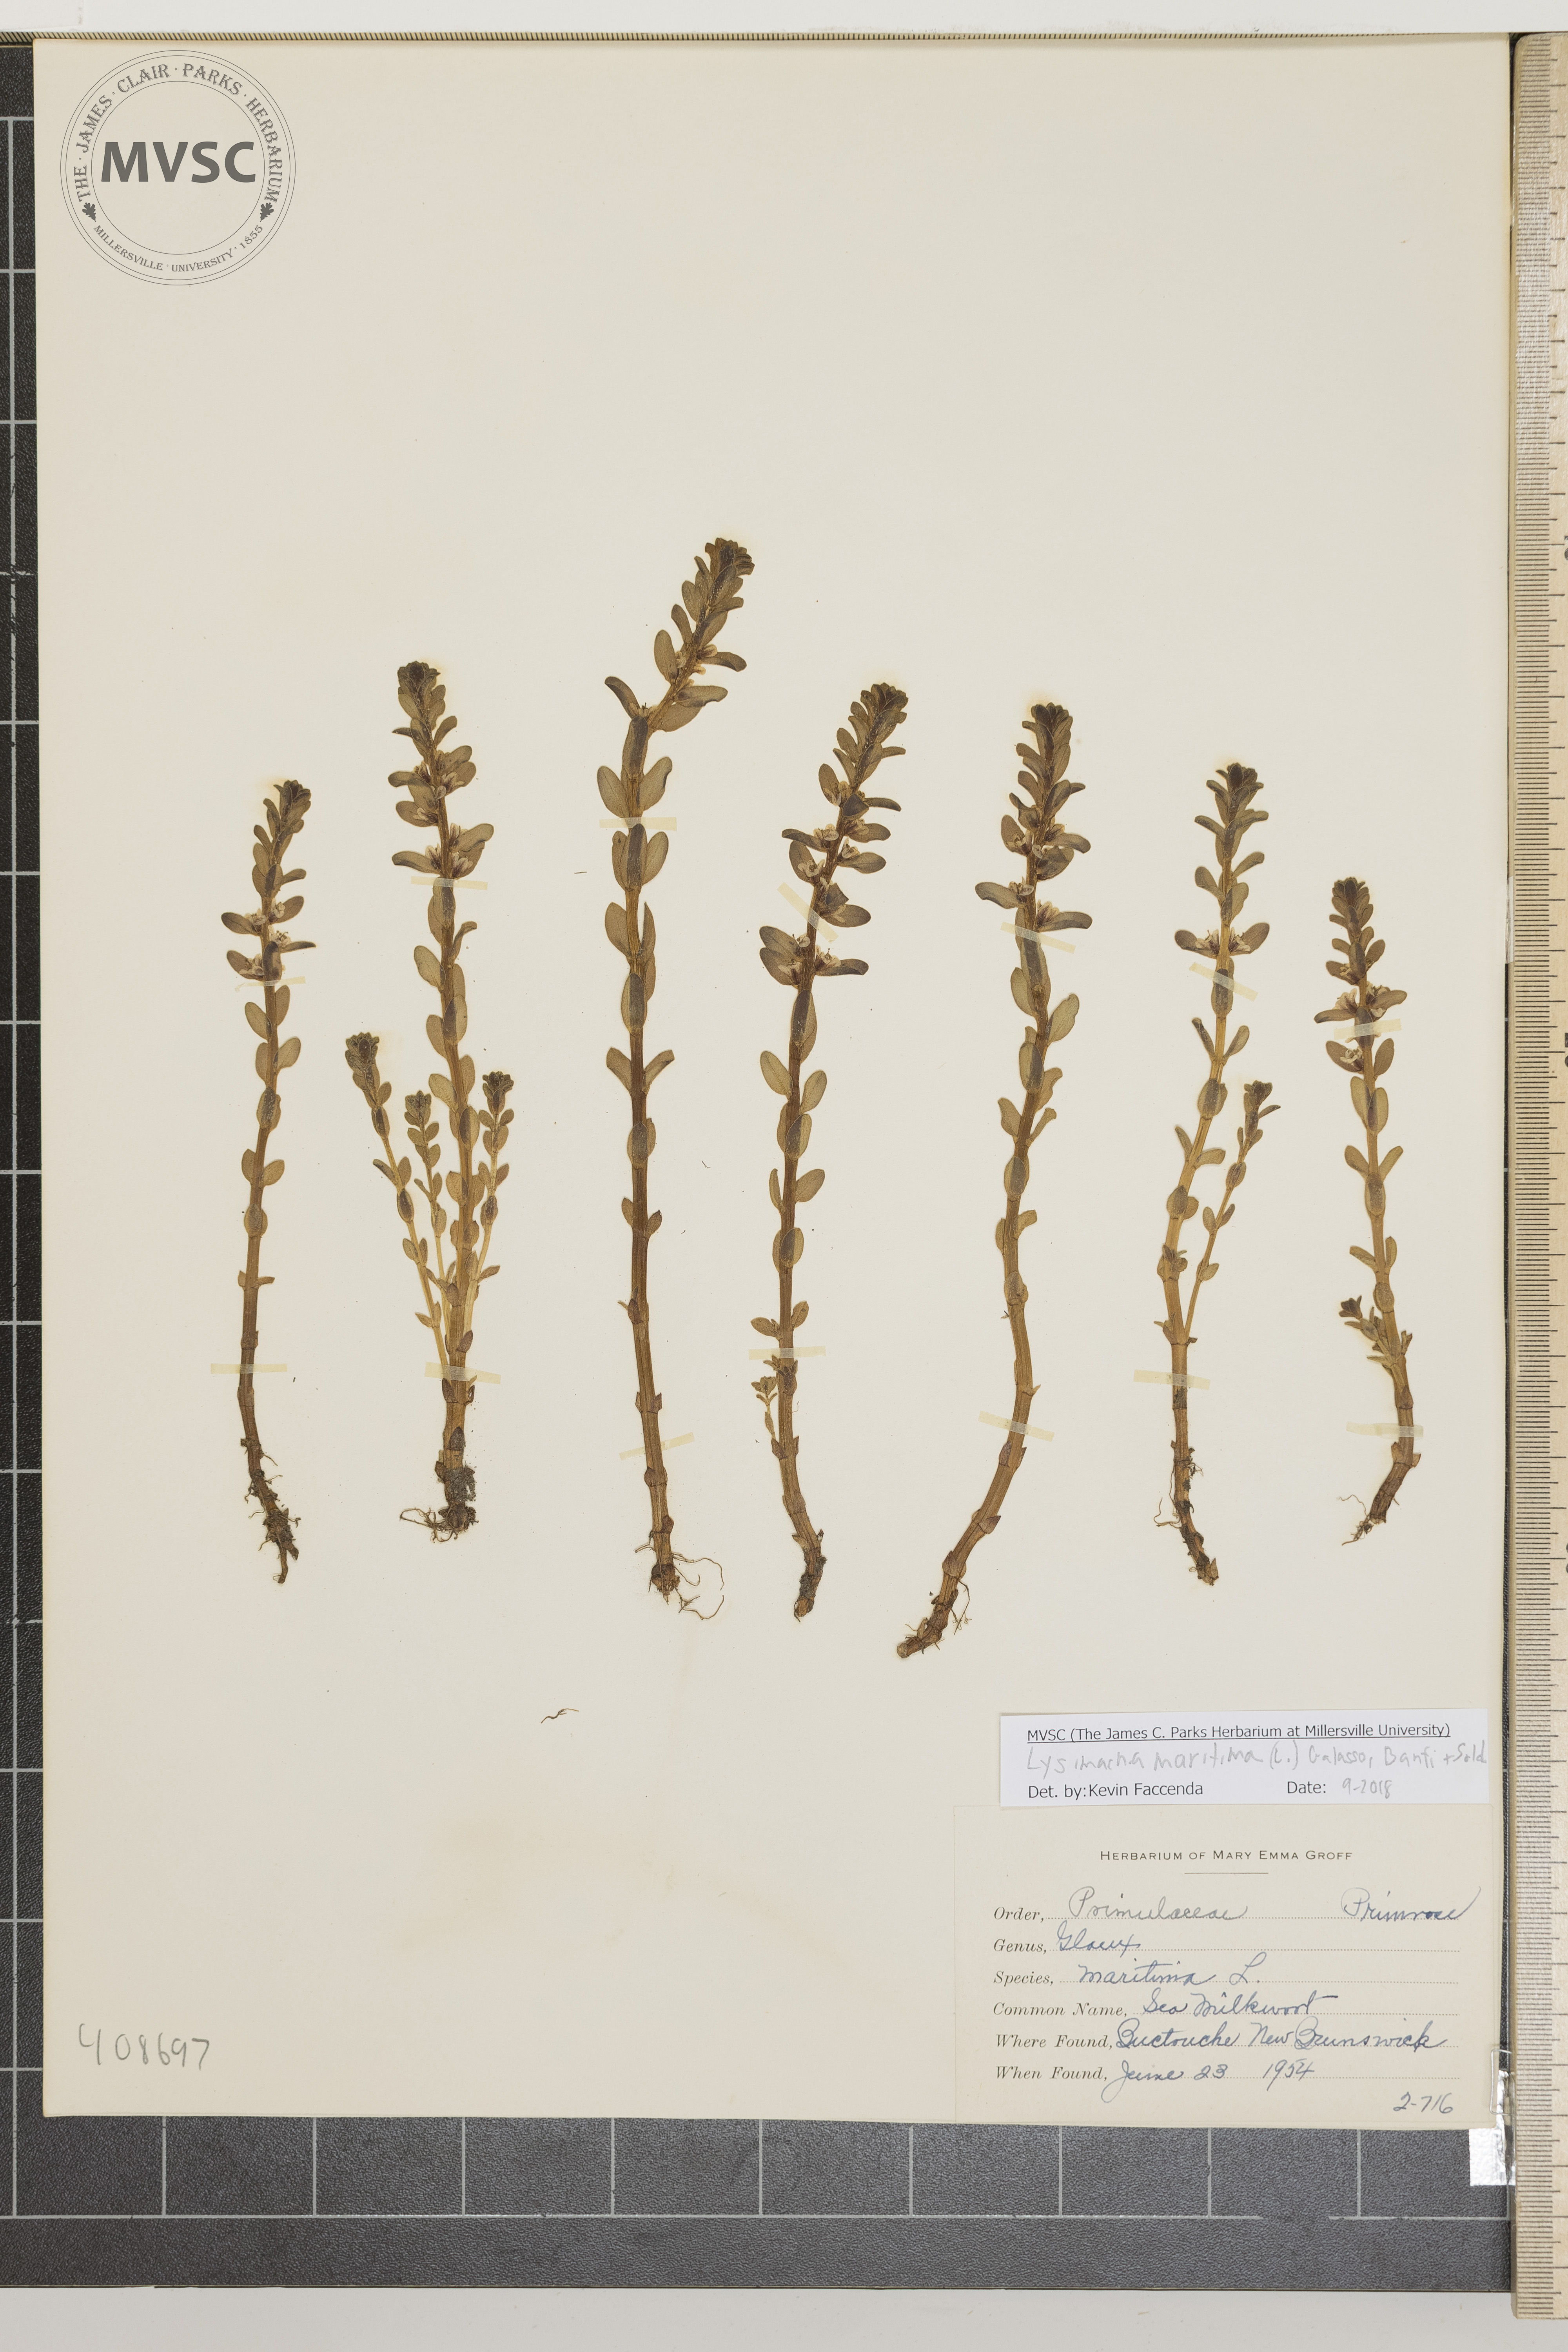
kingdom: Plantae
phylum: Tracheophyta
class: Magnoliopsida
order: Ericales
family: Primulaceae
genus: Lysimachia
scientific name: Lysimachia maritima
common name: Sea Milkwort
